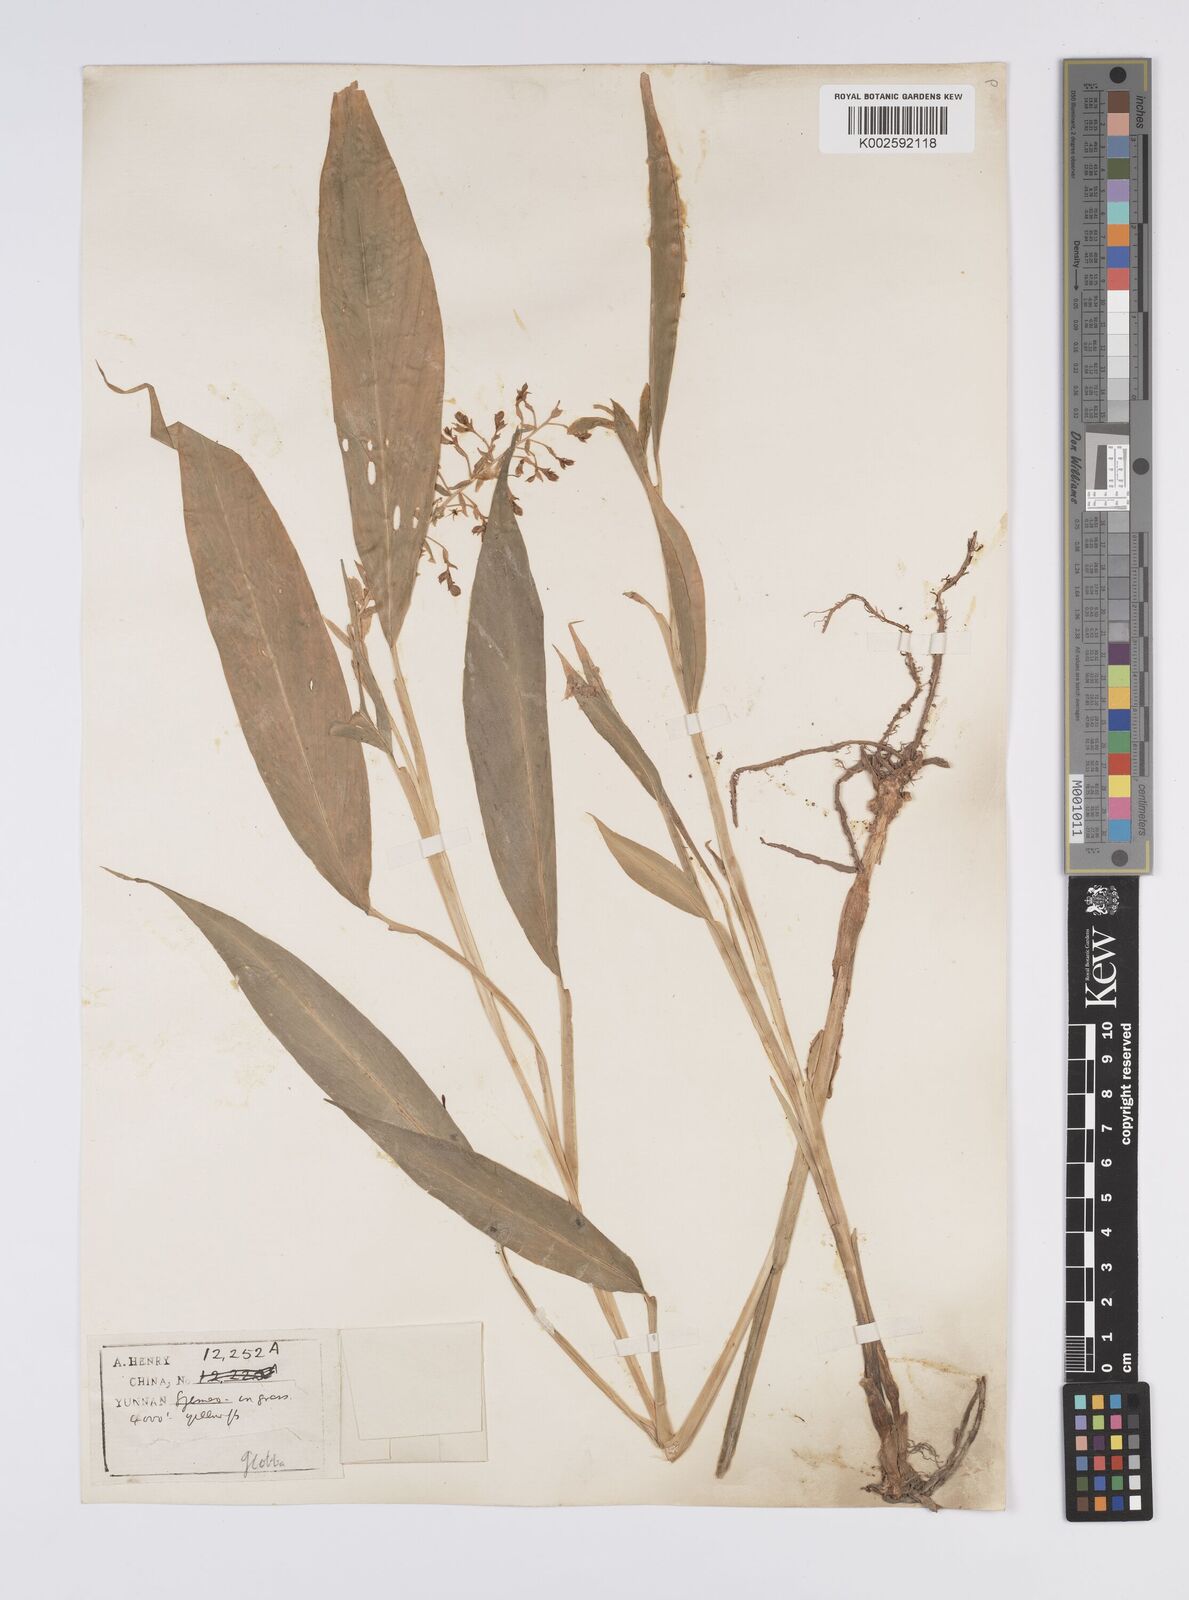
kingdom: Plantae
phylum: Tracheophyta
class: Liliopsida
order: Zingiberales
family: Zingiberaceae
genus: Globba
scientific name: Globba schomburgkii
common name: Dancing girl ginger
